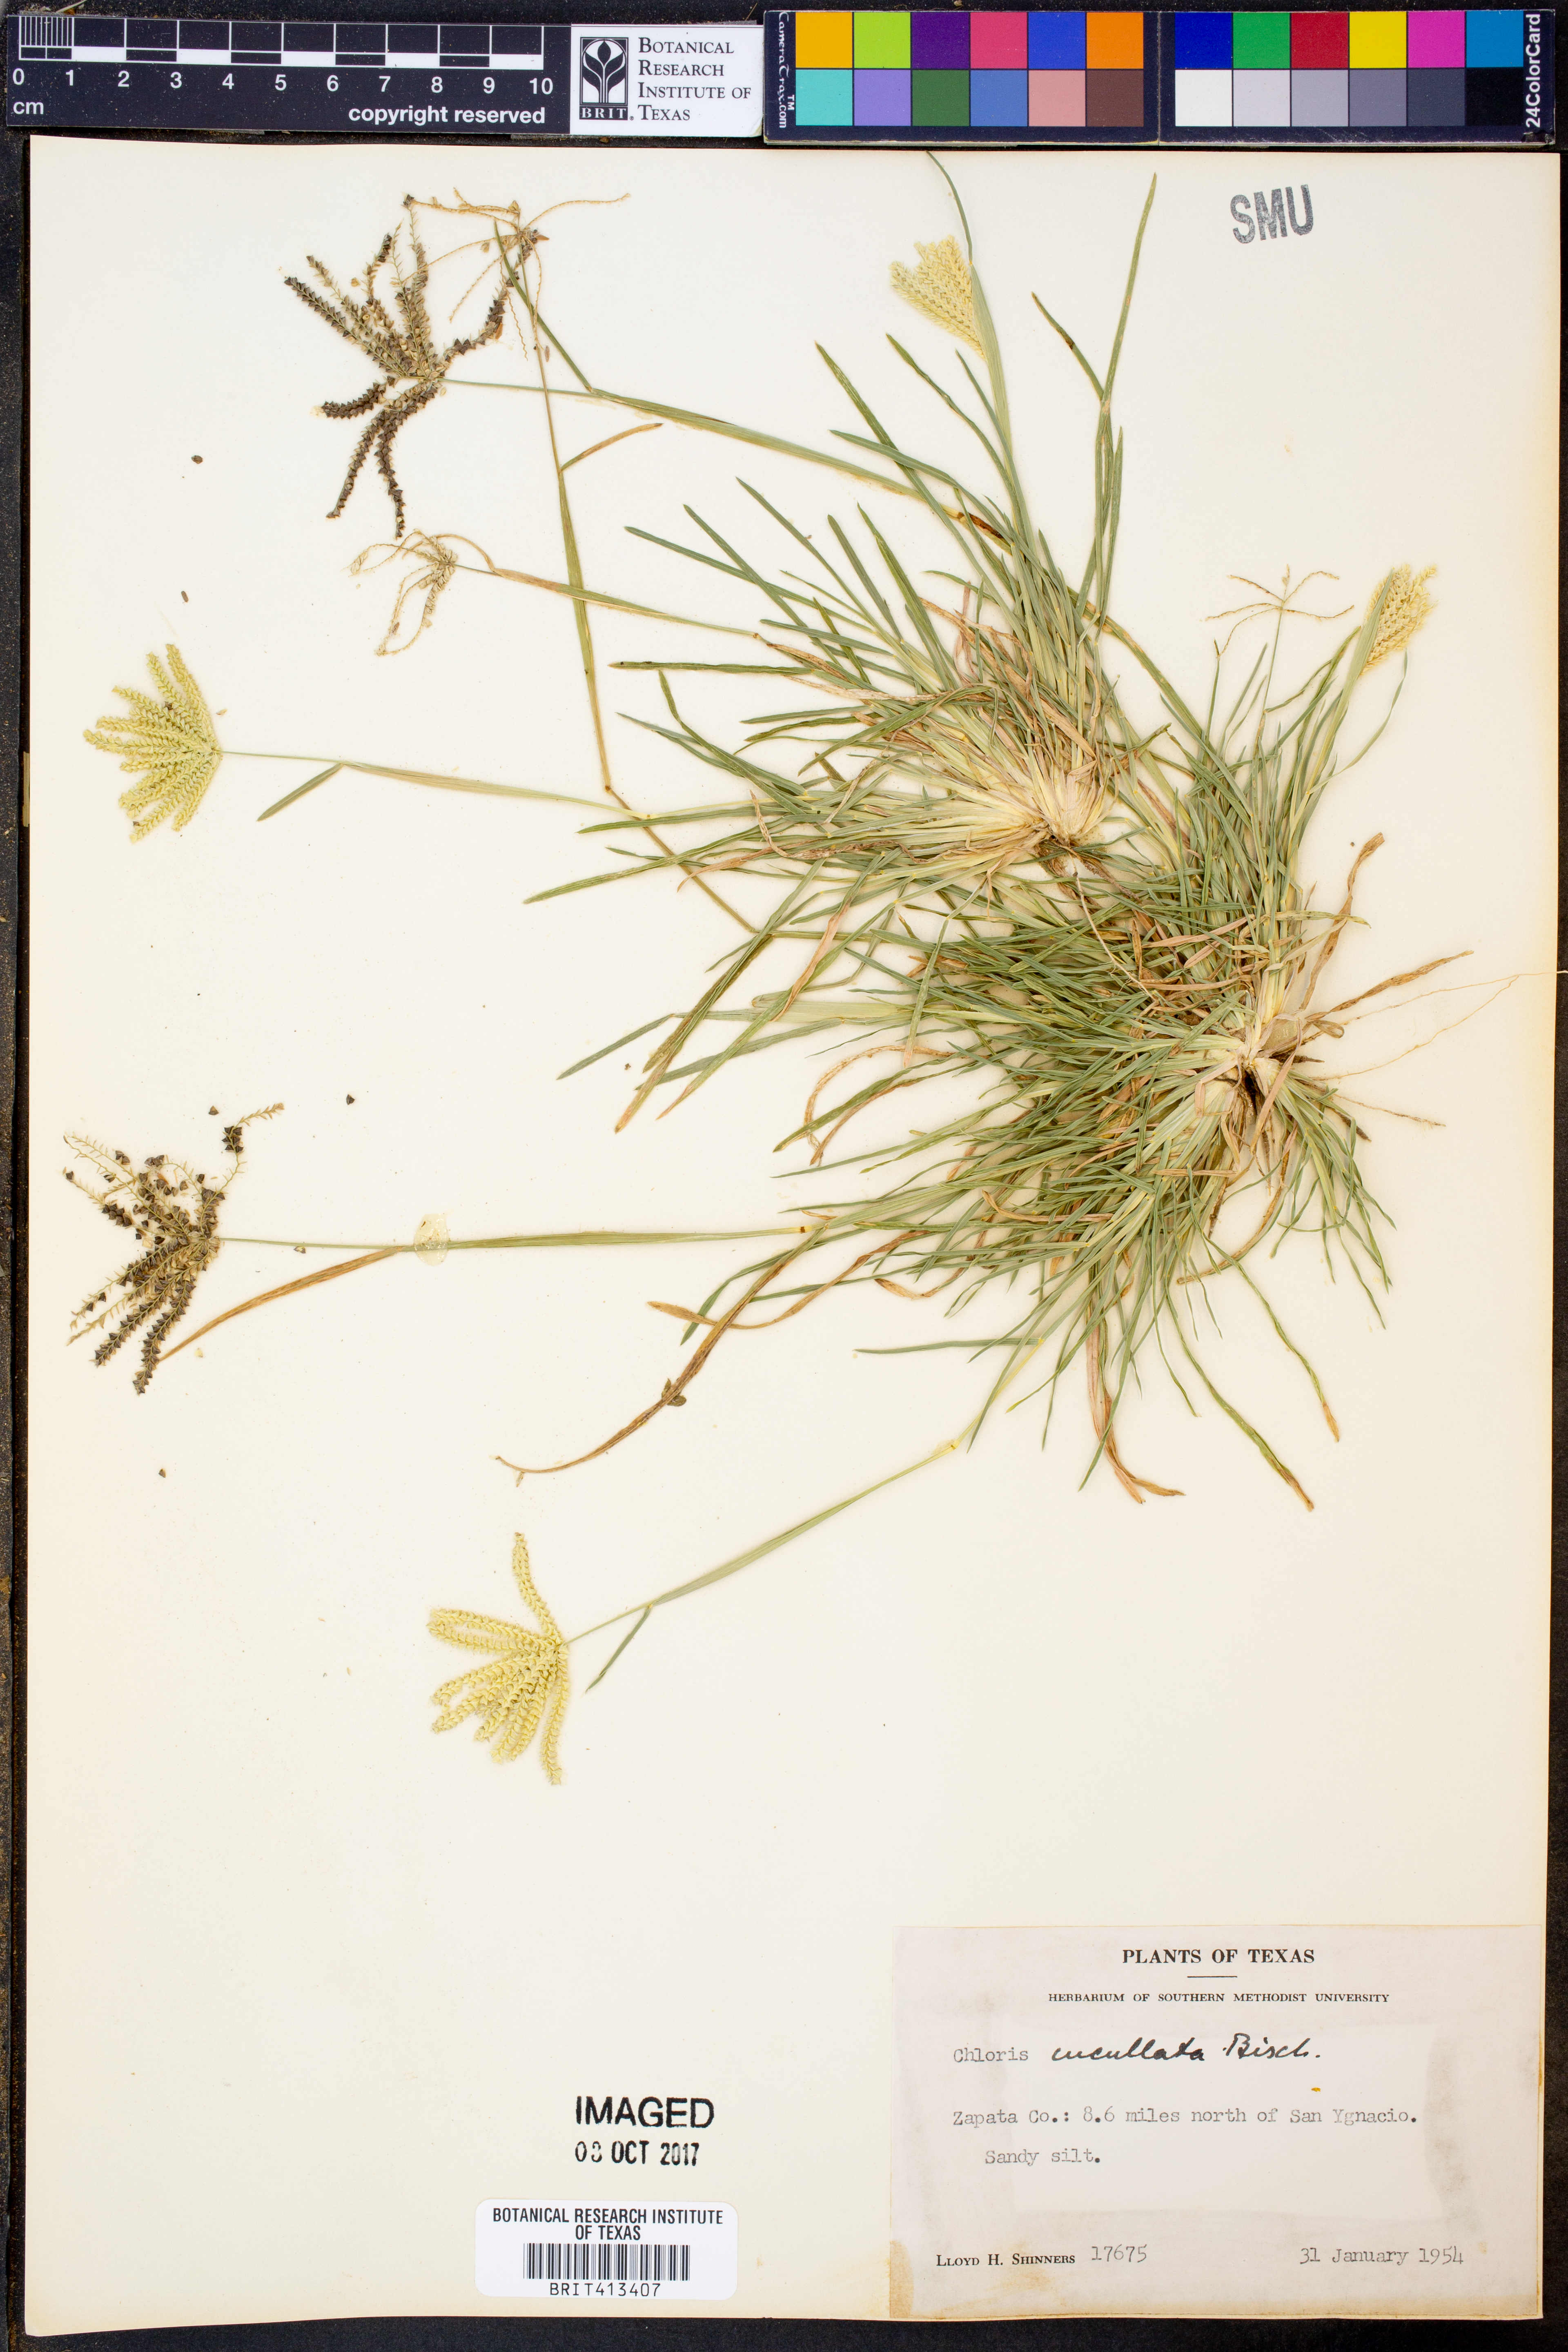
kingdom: Plantae
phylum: Tracheophyta
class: Liliopsida
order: Poales
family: Poaceae
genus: Chloris
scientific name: Chloris cucullata
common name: Hooded windmill grass
